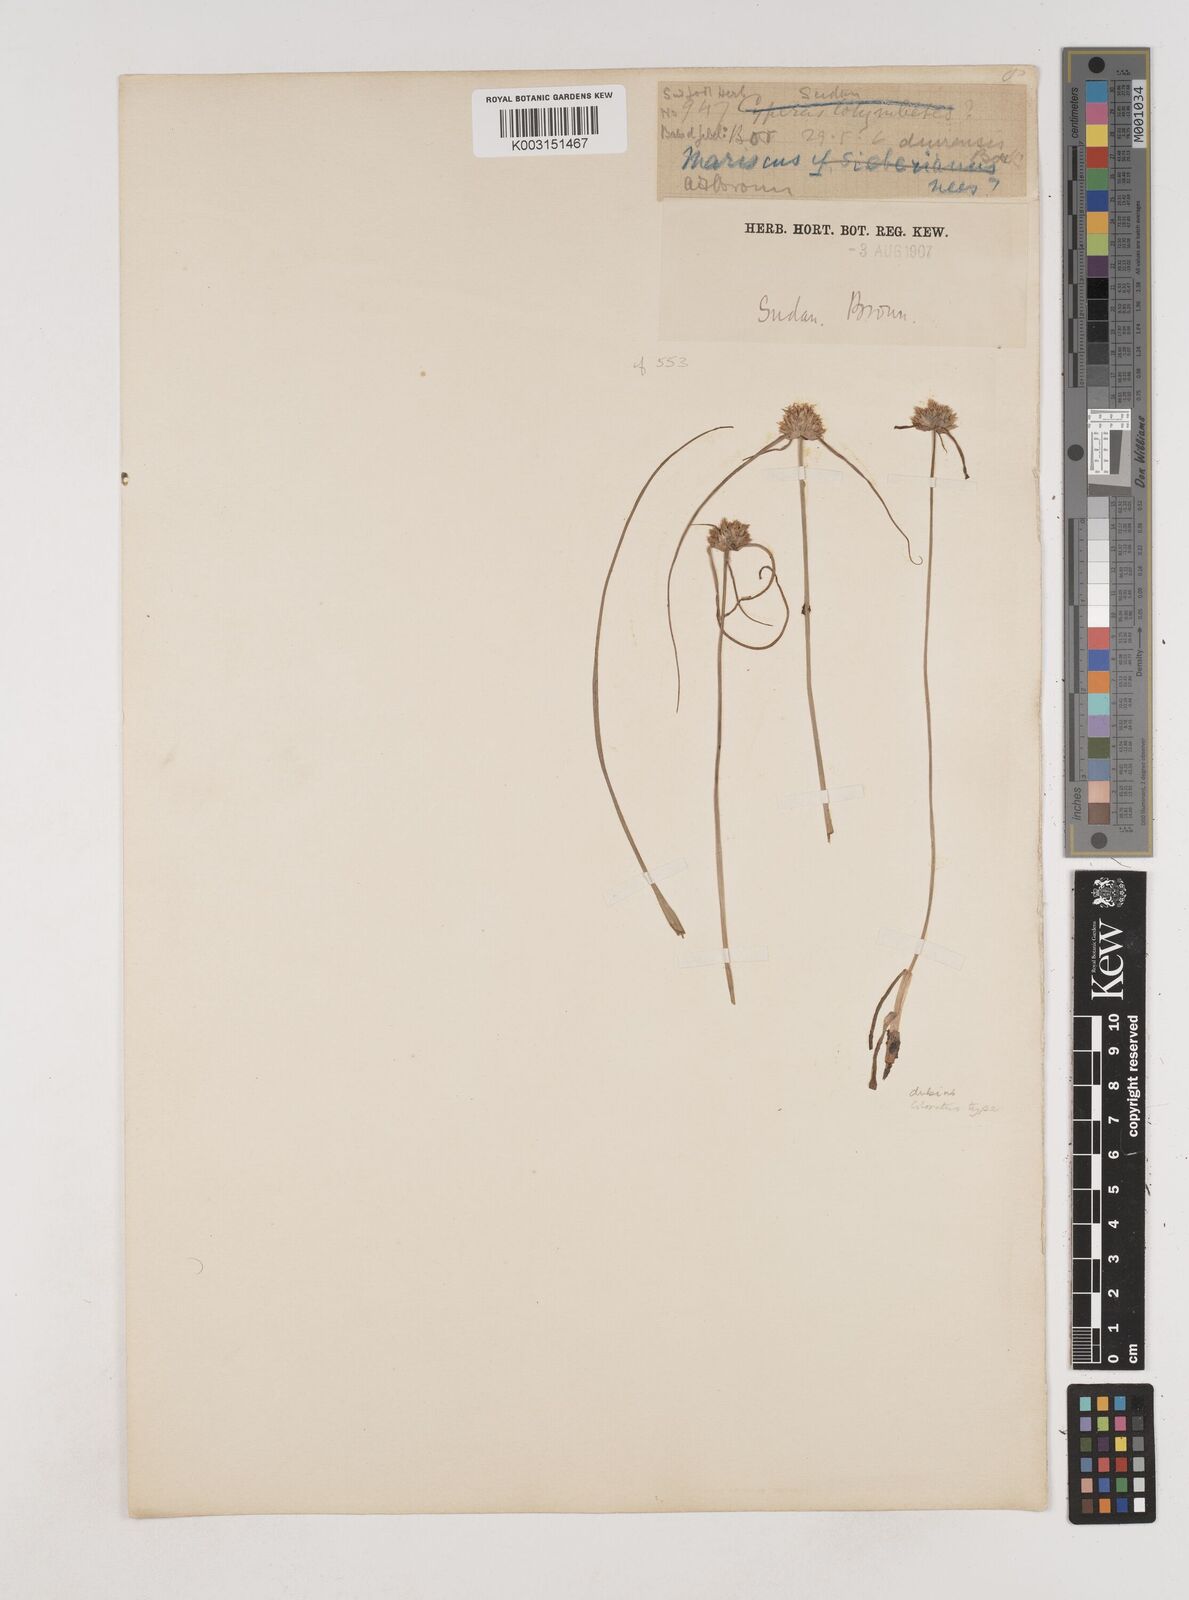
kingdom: Plantae
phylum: Tracheophyta
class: Liliopsida
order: Poales
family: Cyperaceae
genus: Cyperus
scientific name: Cyperus plateilema
